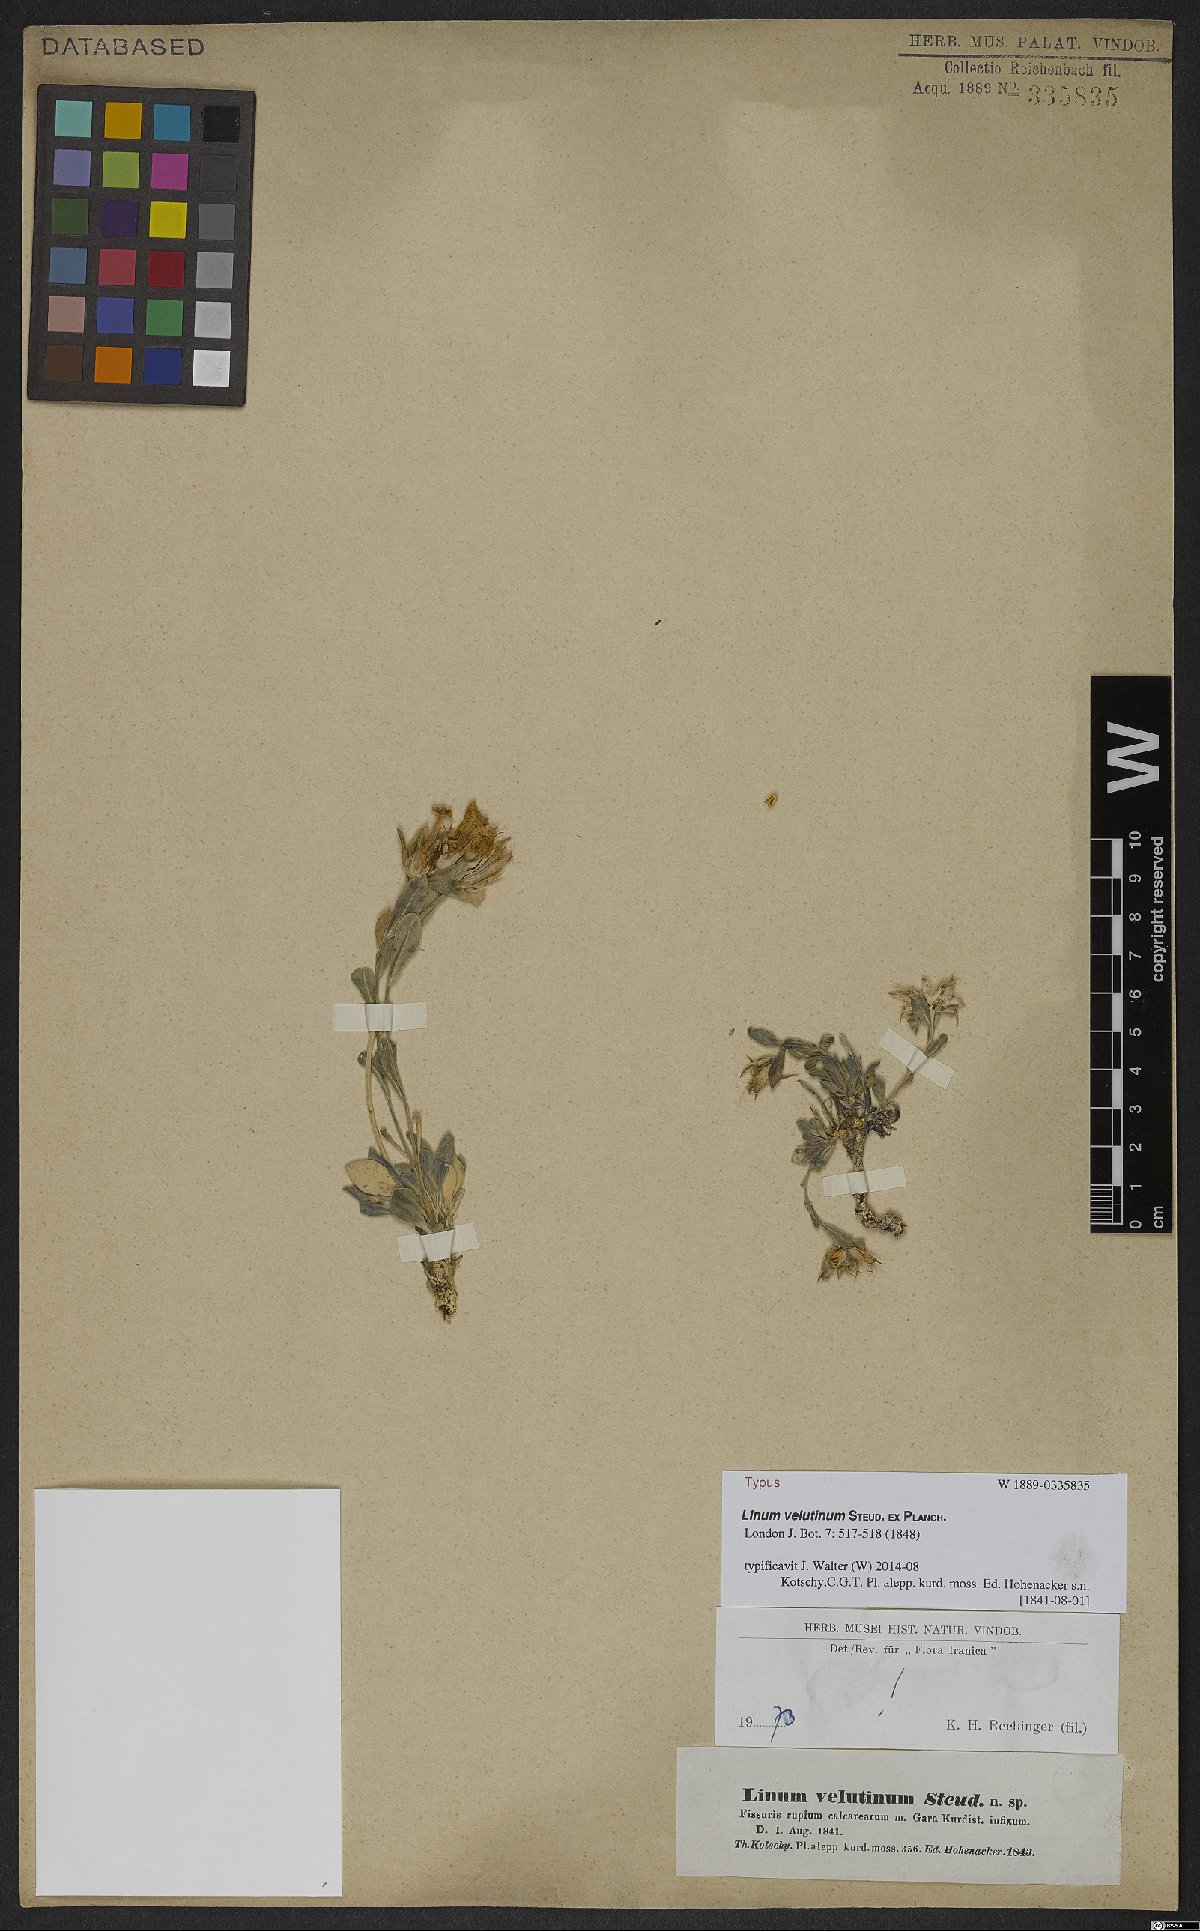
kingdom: Plantae
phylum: Tracheophyta
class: Magnoliopsida
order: Malpighiales
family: Linaceae
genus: Linum
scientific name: Linum velutinum
